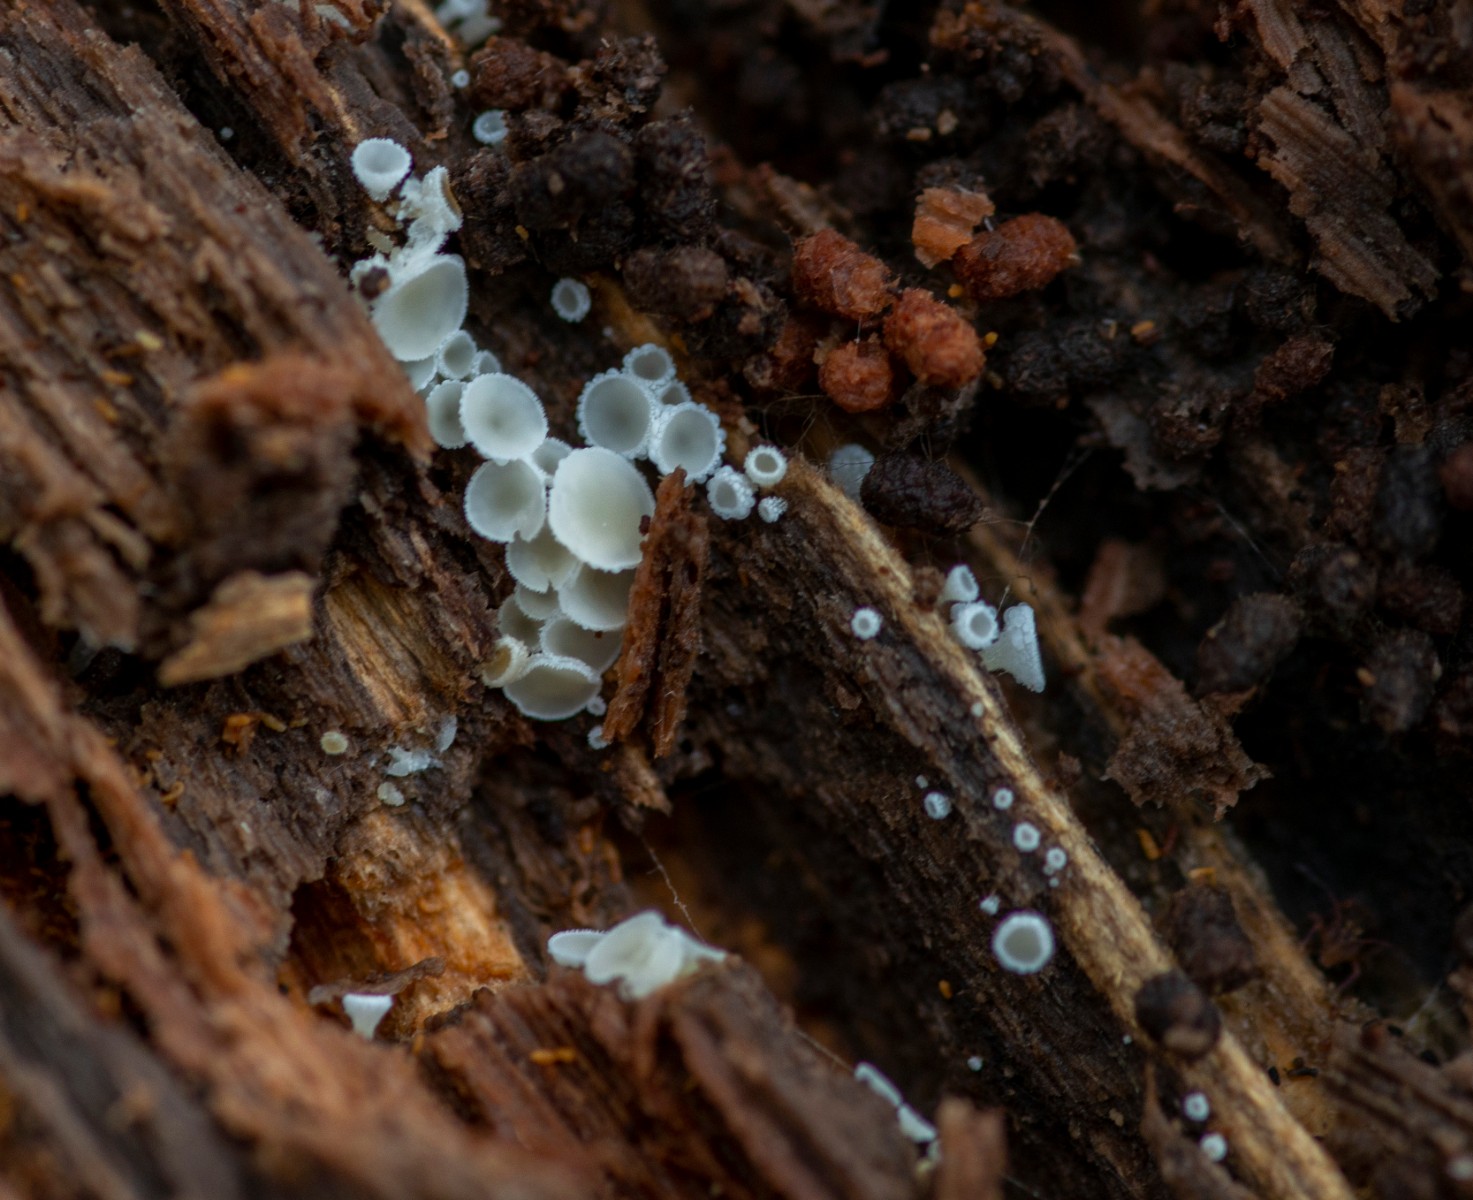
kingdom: Fungi
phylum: Ascomycota
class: Leotiomycetes
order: Helotiales
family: Lachnaceae
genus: Lachnum
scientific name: Lachnum
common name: frynseskive
